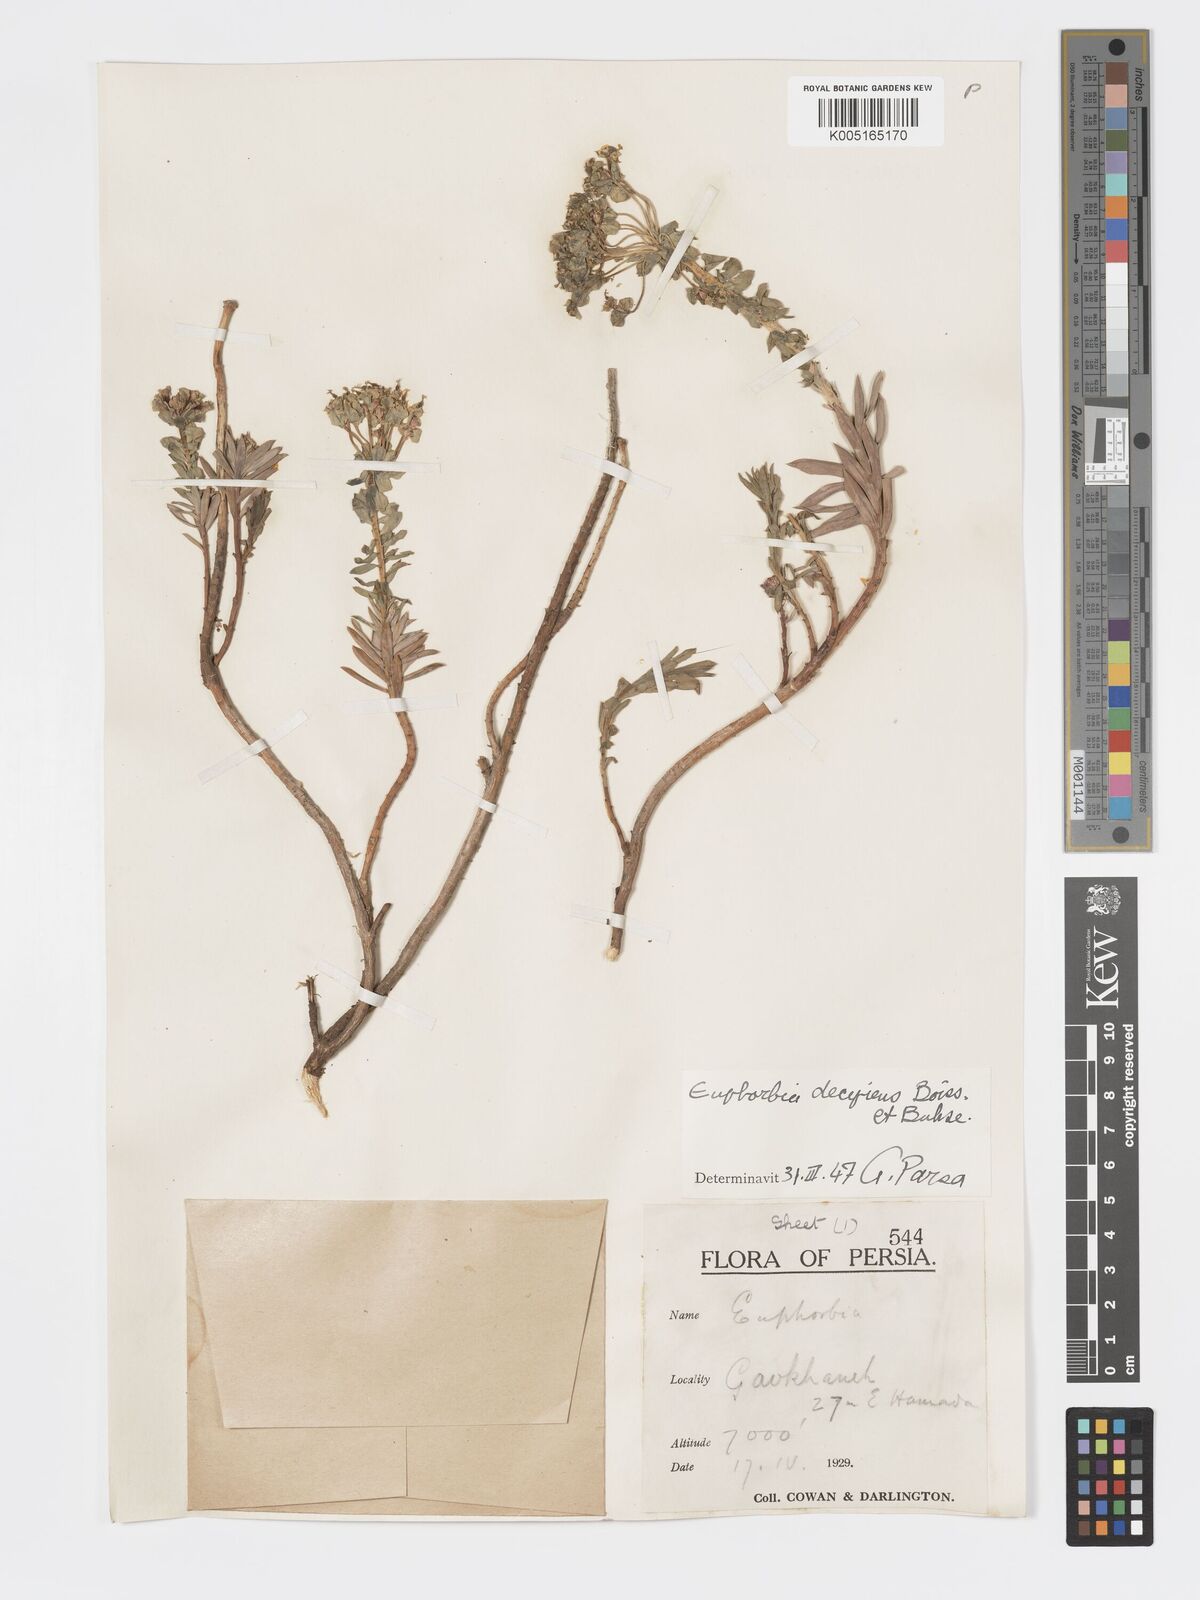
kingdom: Plantae
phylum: Tracheophyta
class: Magnoliopsida
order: Malpighiales
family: Euphorbiaceae
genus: Euphorbia
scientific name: Euphorbia polycaulis
